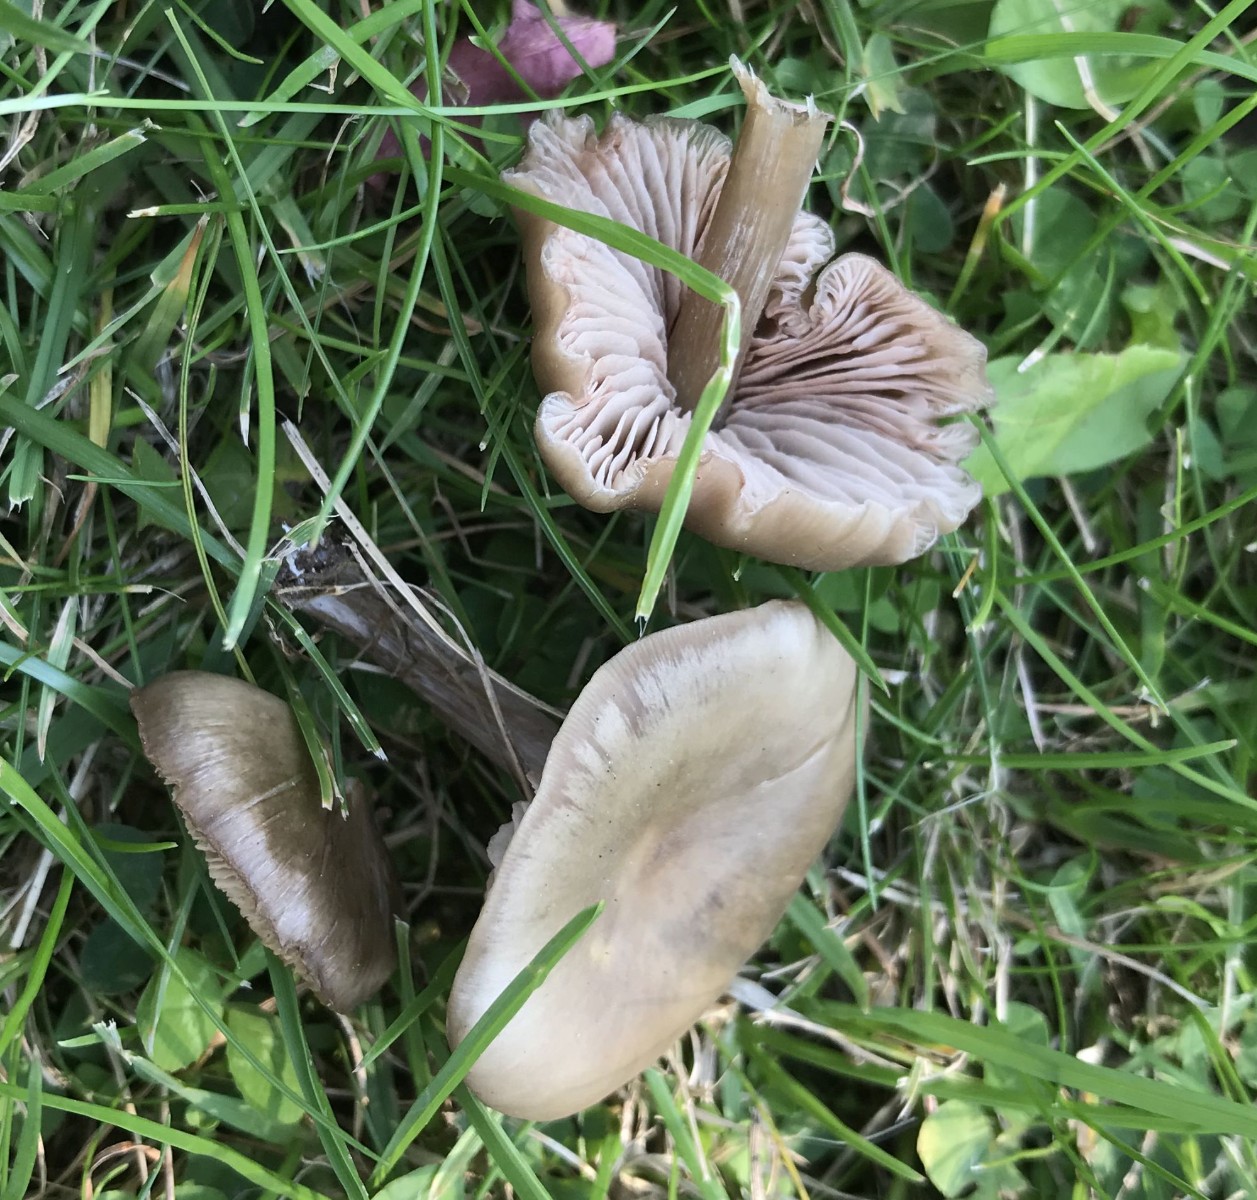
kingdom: Fungi
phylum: Basidiomycota
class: Agaricomycetes
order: Agaricales
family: Entolomataceae
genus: Entoloma
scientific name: Entoloma sericeum
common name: silkeglinsende rødblad
